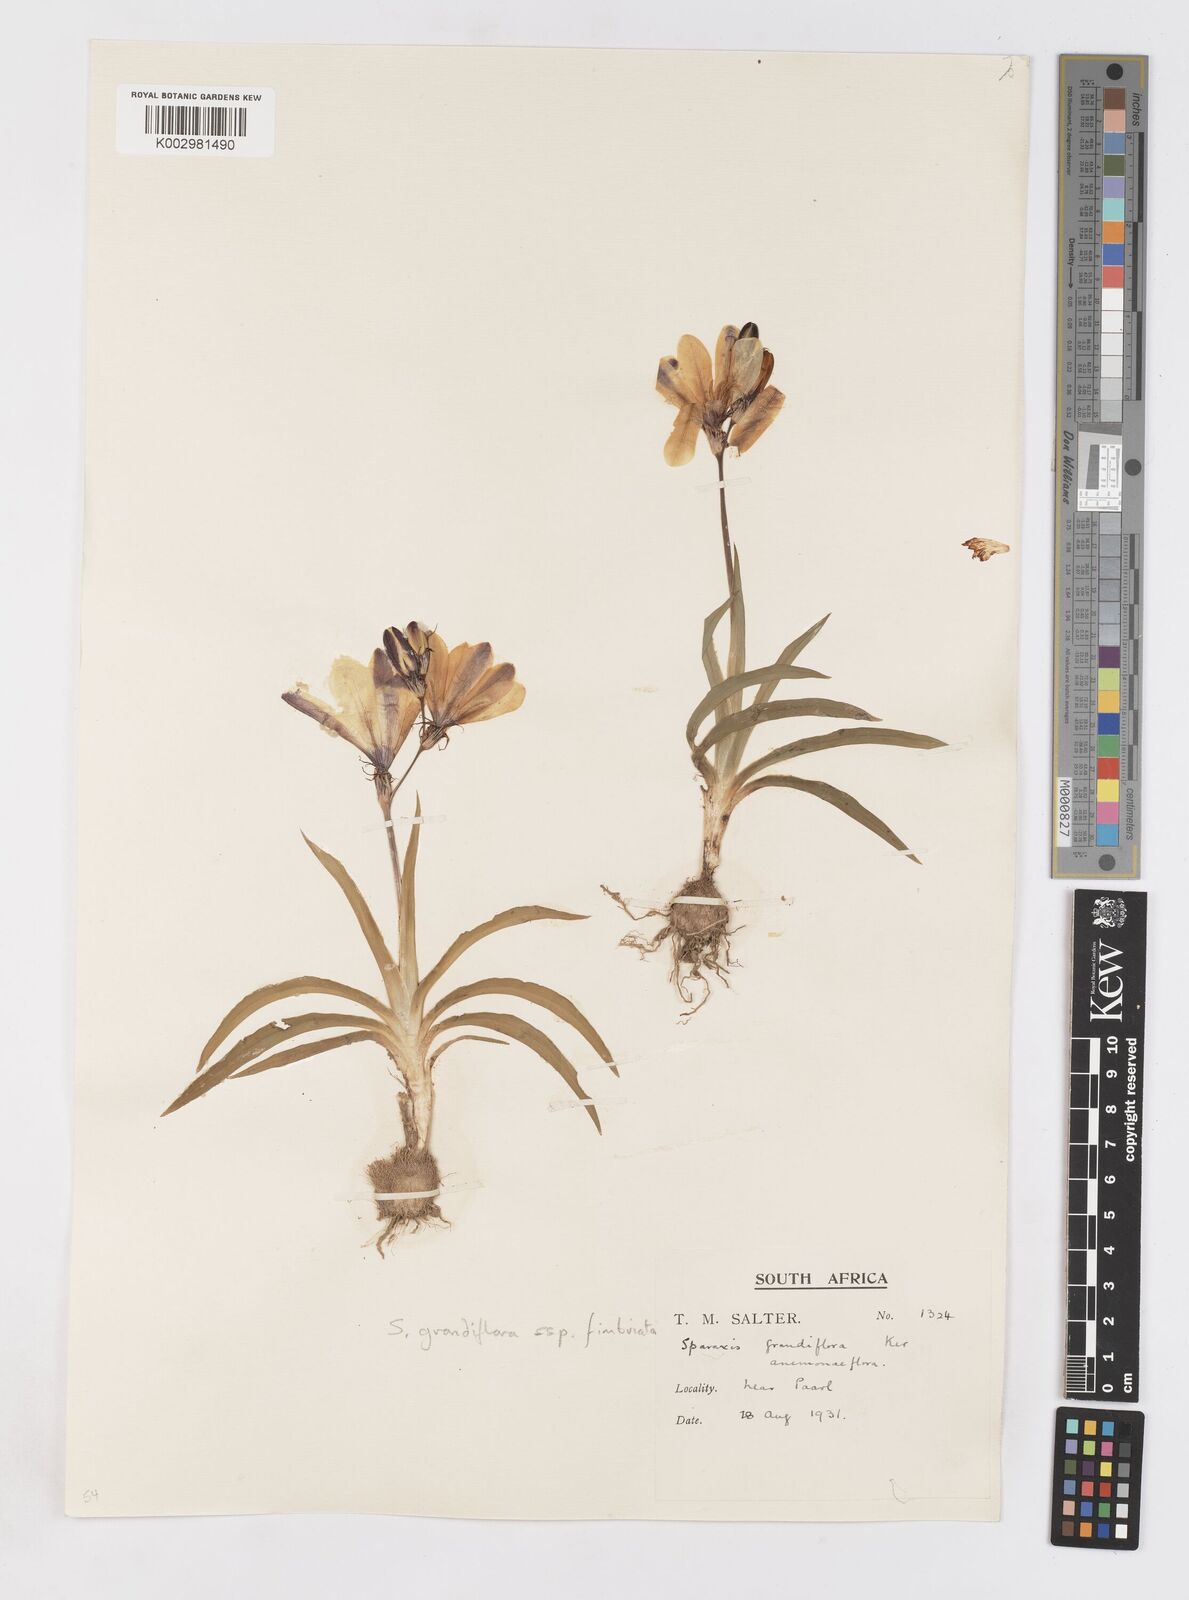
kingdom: Plantae
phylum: Tracheophyta
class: Liliopsida
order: Asparagales
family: Iridaceae
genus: Sparaxis
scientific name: Sparaxis grandiflora
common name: Plain harlequin-flower
